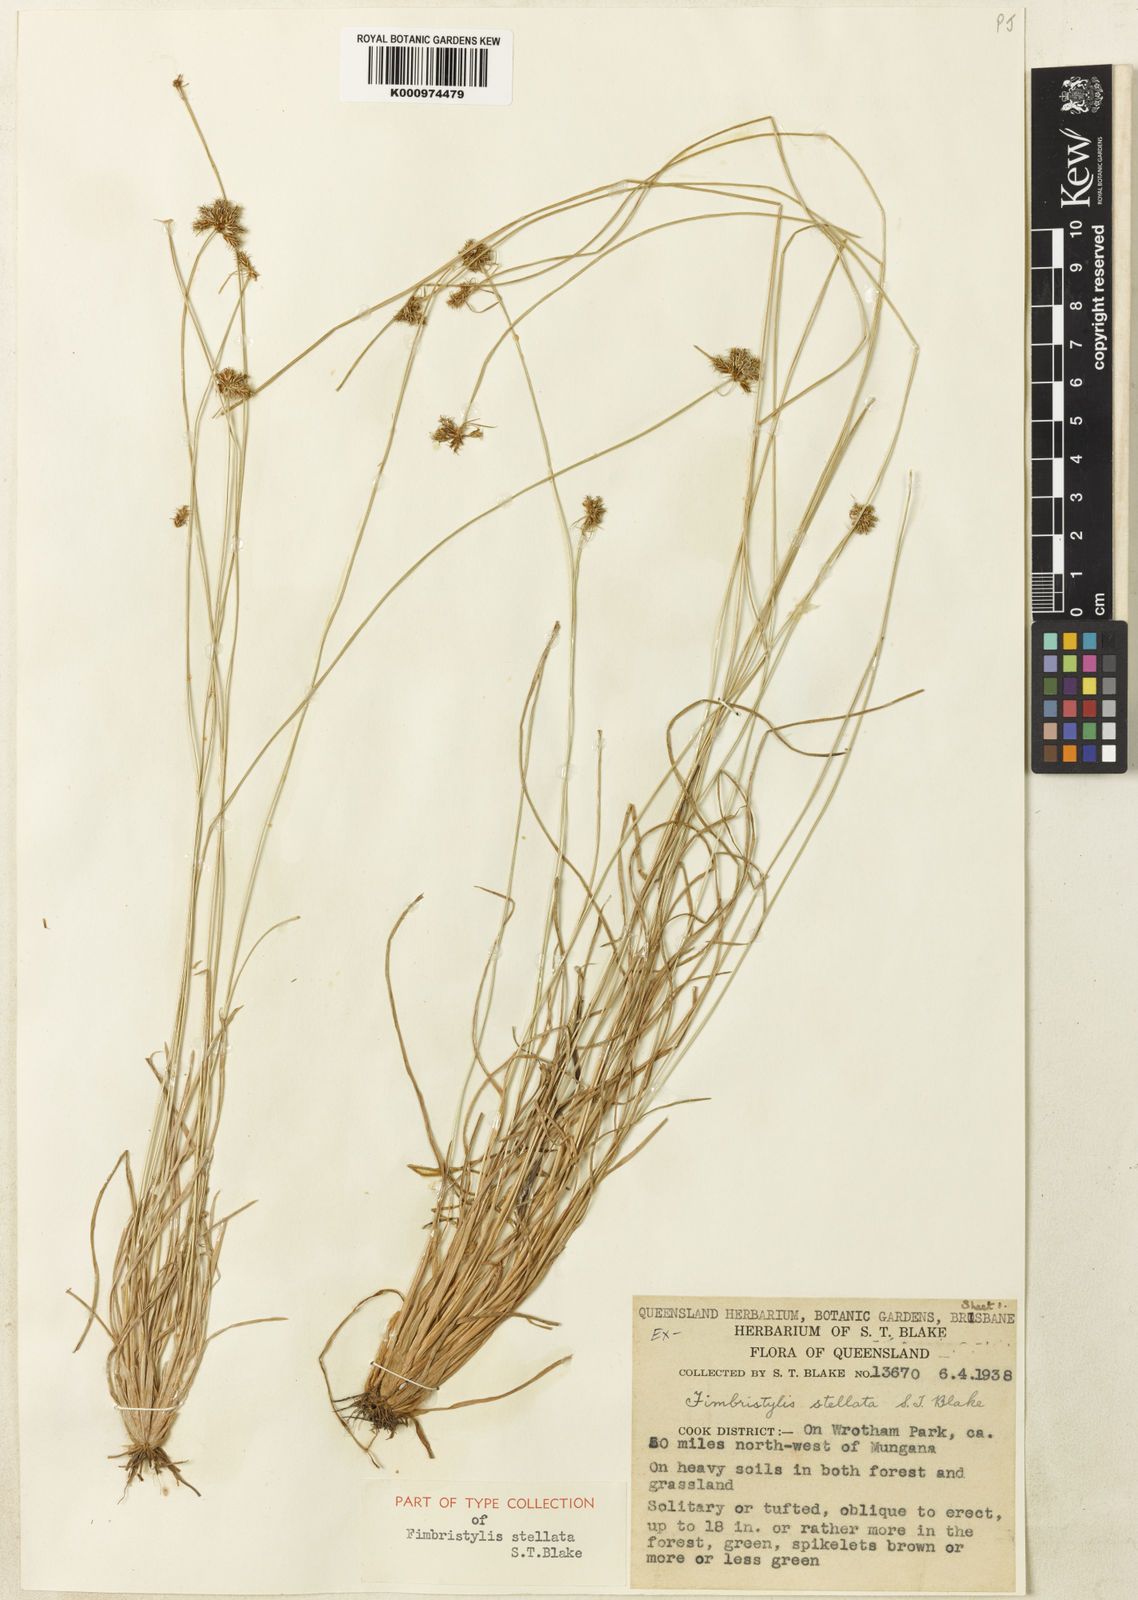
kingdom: Plantae
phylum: Tracheophyta
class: Liliopsida
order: Poales
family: Cyperaceae
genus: Fimbristylis
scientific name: Fimbristylis schultzii
